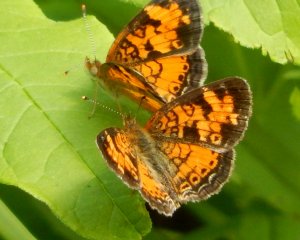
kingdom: Animalia
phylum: Arthropoda
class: Insecta
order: Lepidoptera
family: Nymphalidae
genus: Phyciodes
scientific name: Phyciodes tharos
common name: Northern Crescent
